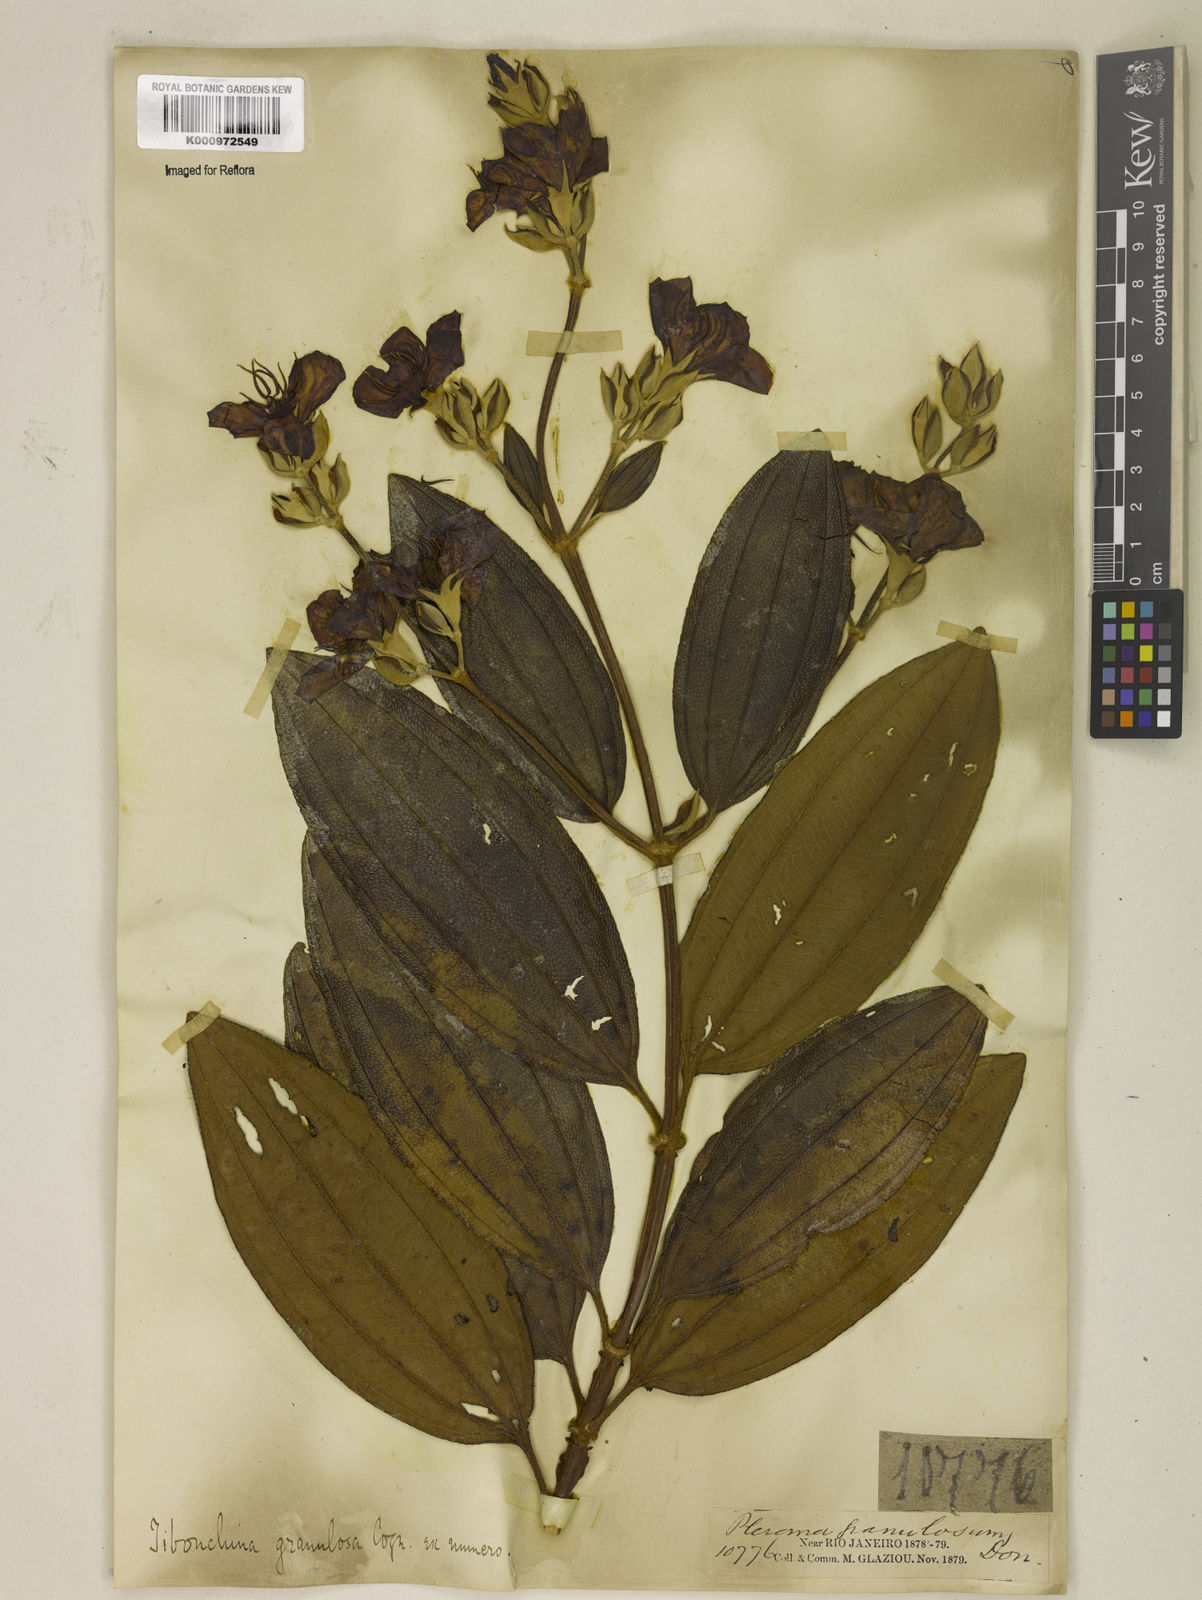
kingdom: Plantae
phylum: Tracheophyta
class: Magnoliopsida
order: Myrtales
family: Melastomataceae
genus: Pleroma
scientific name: Pleroma granulosum
